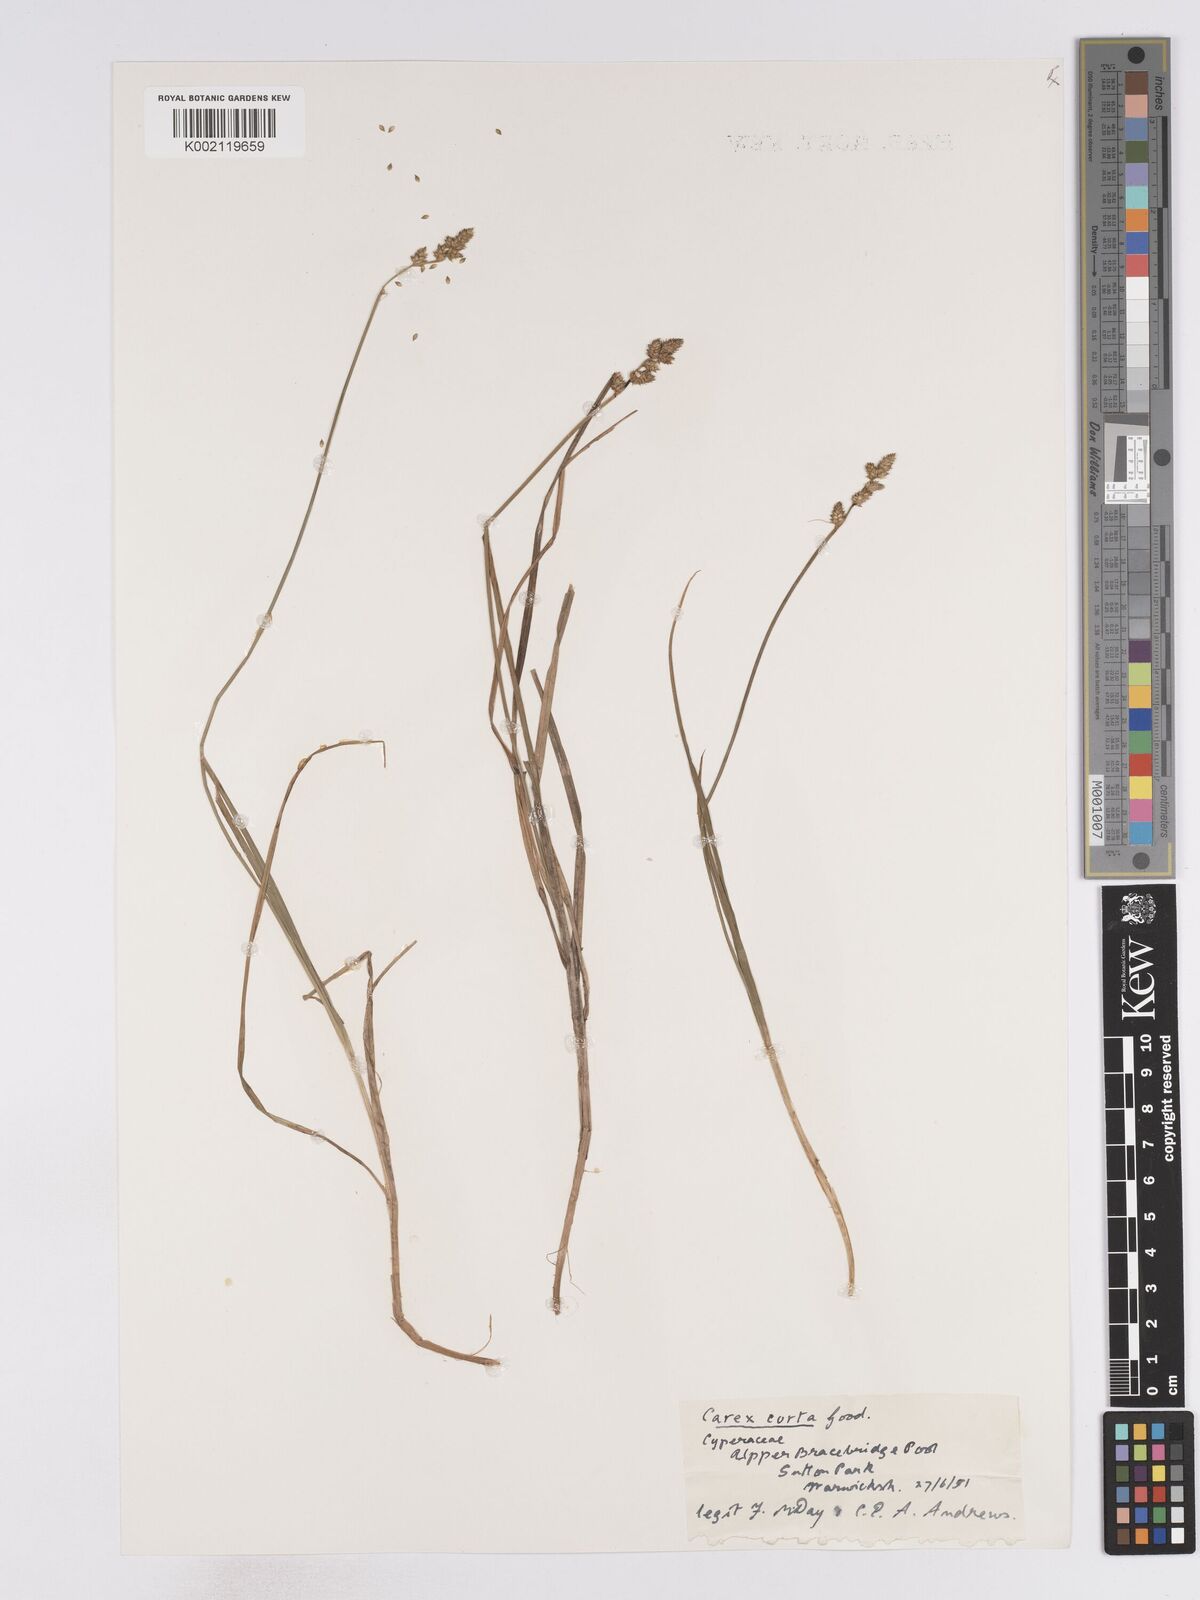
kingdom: Plantae
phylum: Tracheophyta
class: Liliopsida
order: Poales
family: Cyperaceae
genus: Carex
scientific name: Carex curta
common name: White sedge
